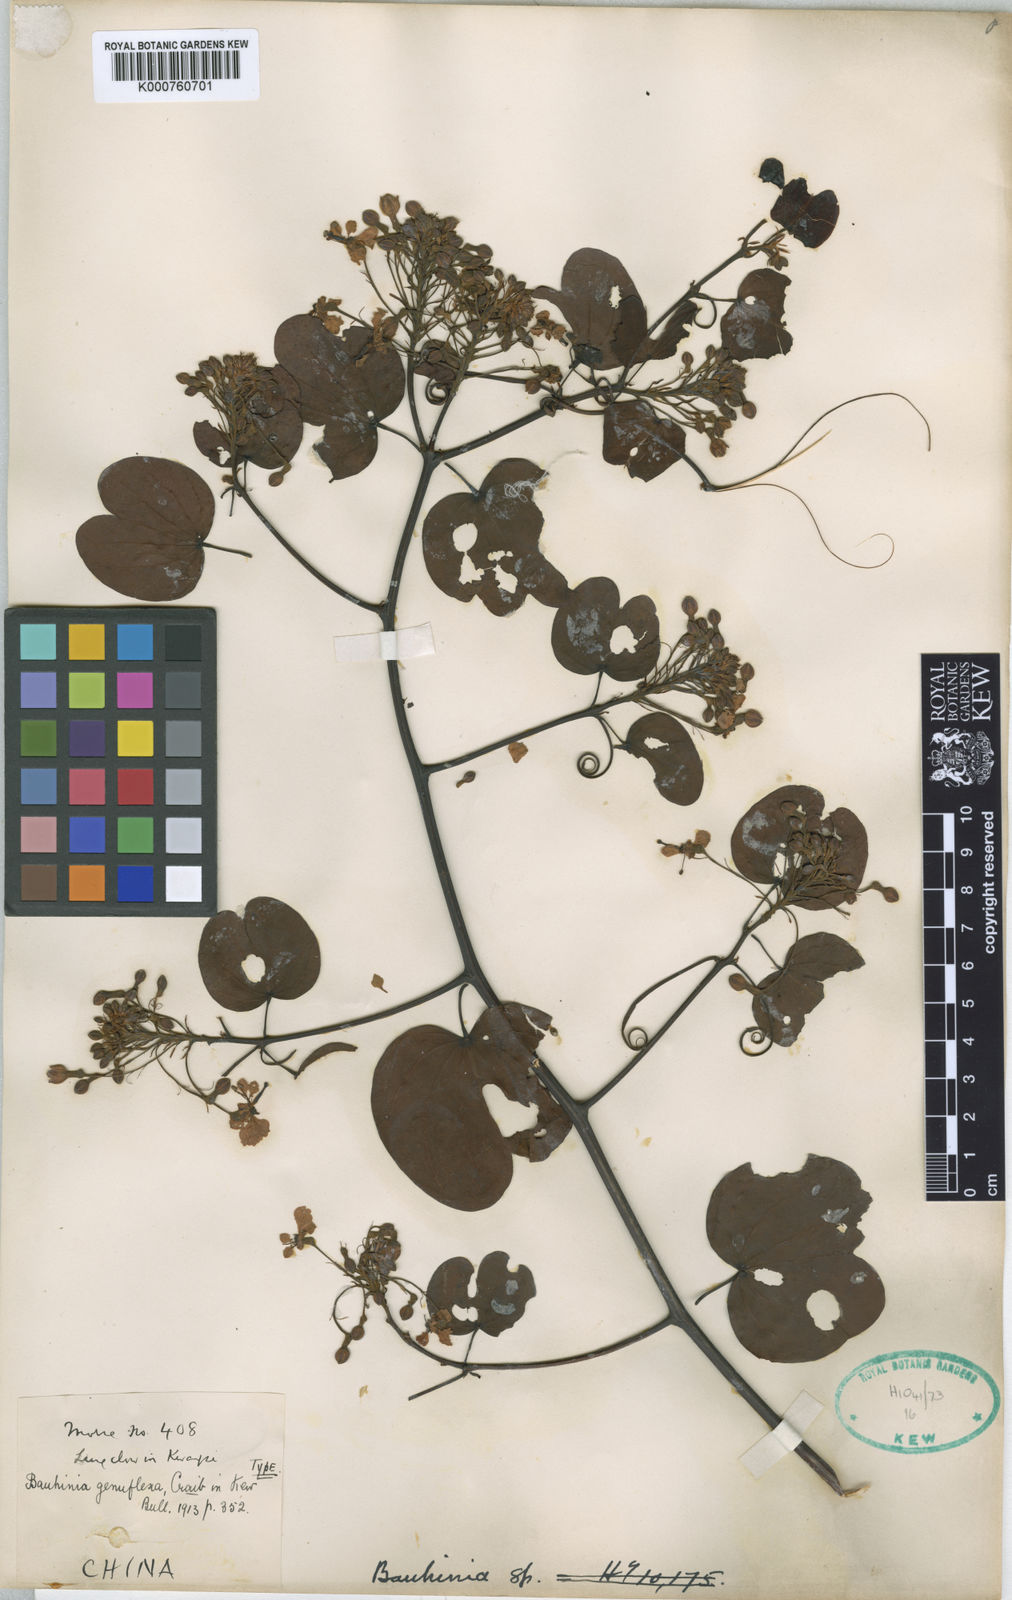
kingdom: Plantae
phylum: Tracheophyta
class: Magnoliopsida
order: Fabales
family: Fabaceae
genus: Cheniella
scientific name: Cheniella touranensis
